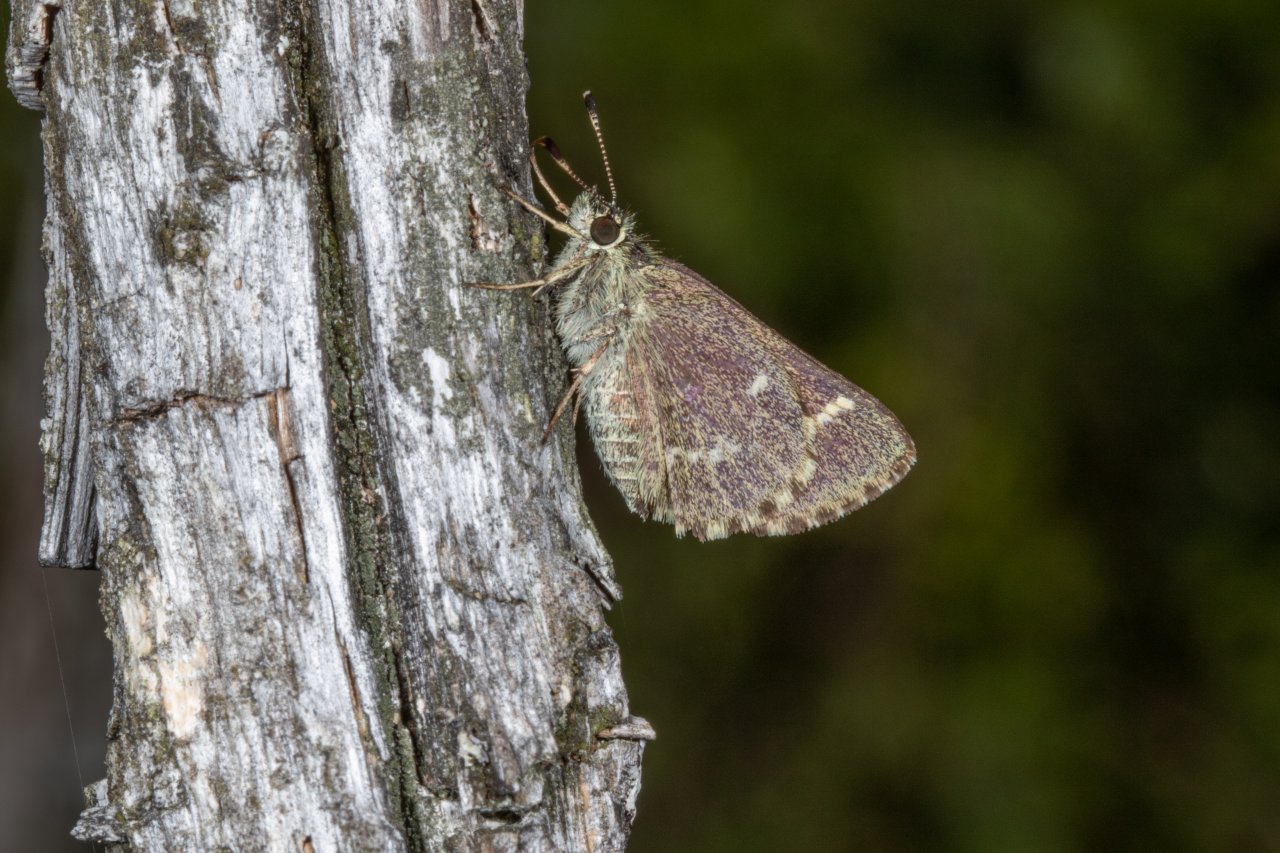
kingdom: Animalia
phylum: Arthropoda
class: Insecta
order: Lepidoptera
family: Hesperiidae
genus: Mastor
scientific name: Mastor hegon
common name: Pepper and Salt Skipper
